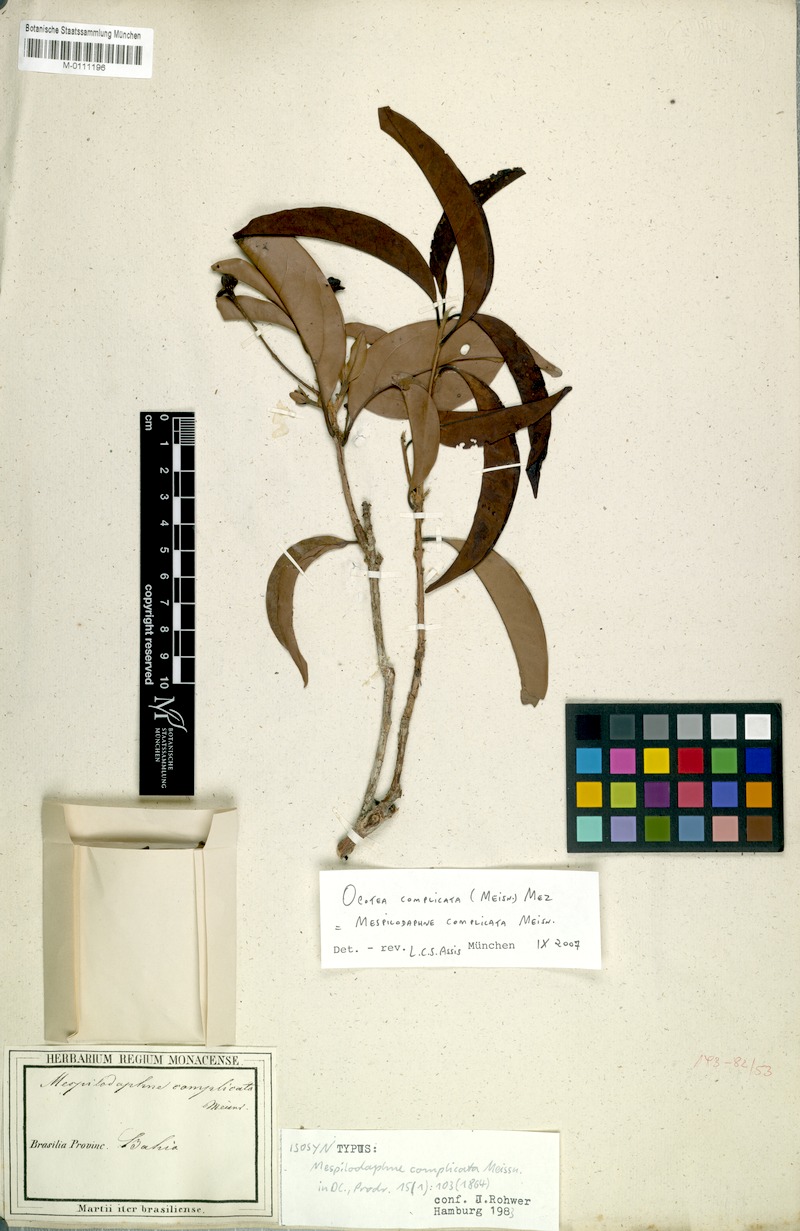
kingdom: Plantae
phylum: Tracheophyta
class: Magnoliopsida
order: Laurales
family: Lauraceae
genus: Mespilodaphne
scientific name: Mespilodaphne complicata
